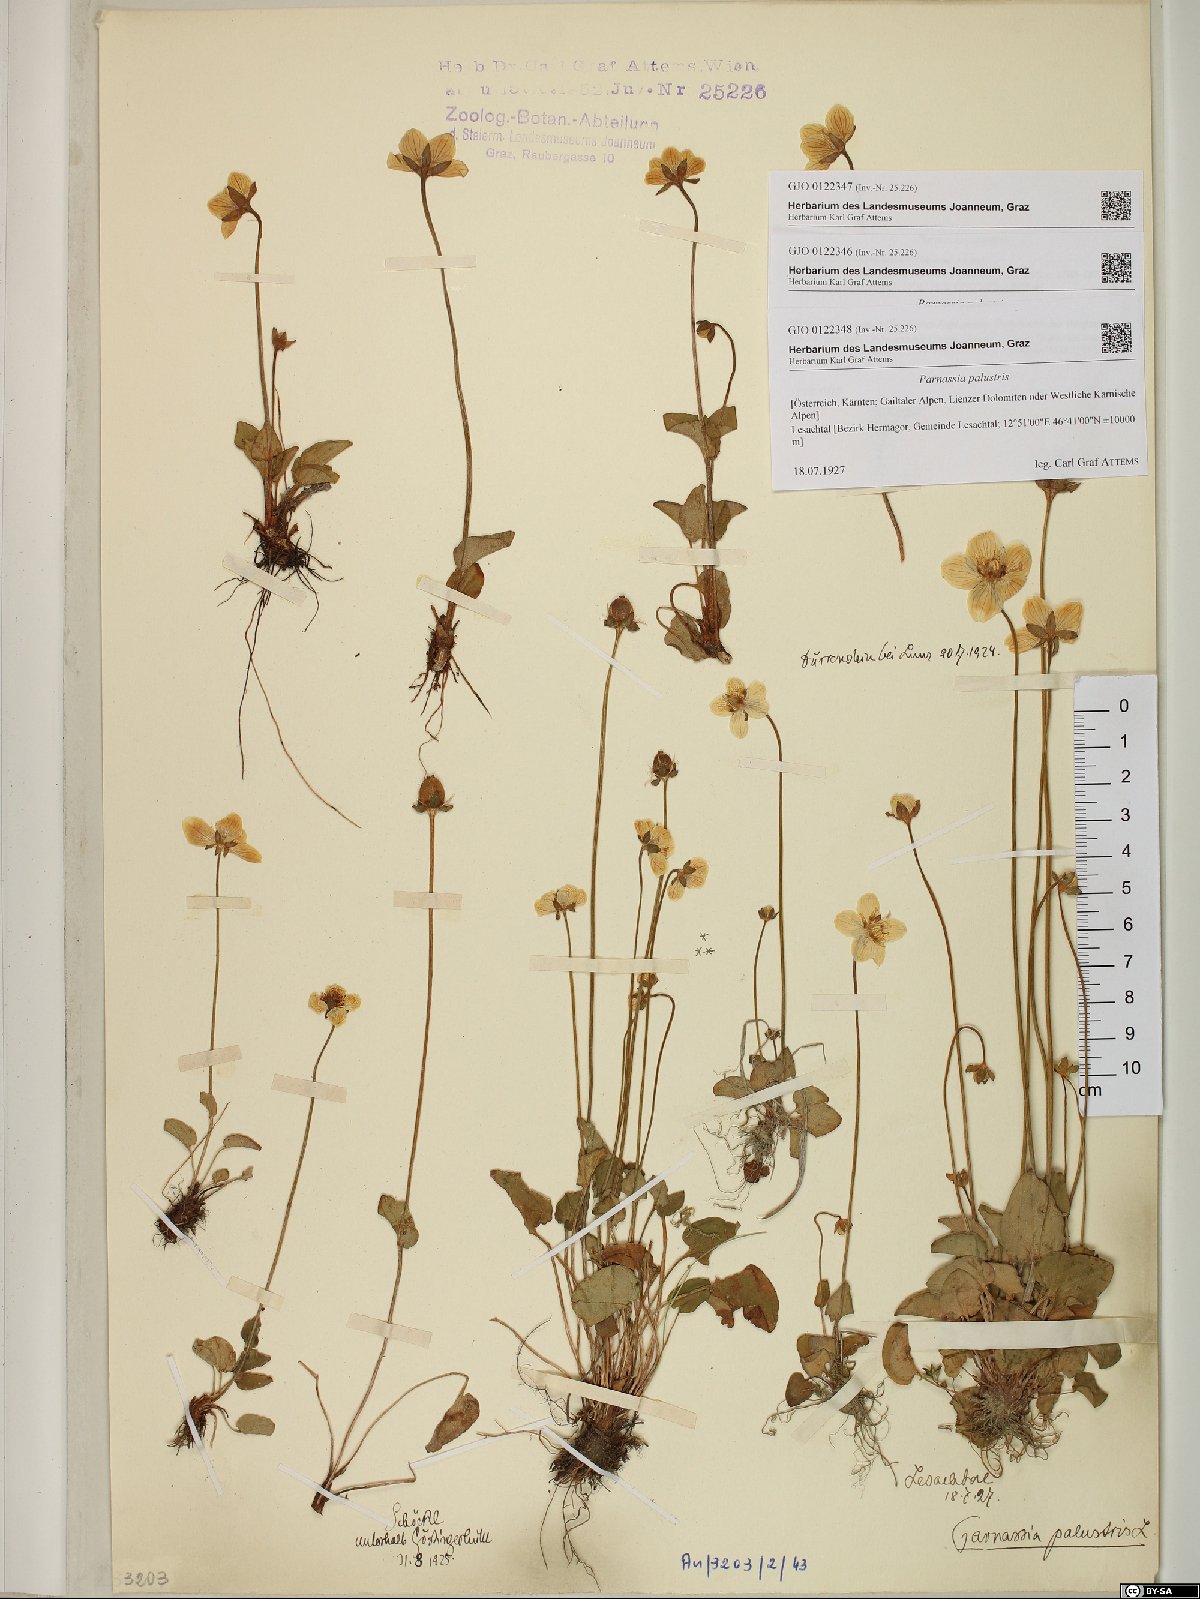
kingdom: Plantae
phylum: Tracheophyta
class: Magnoliopsida
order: Celastrales
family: Parnassiaceae
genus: Parnassia
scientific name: Parnassia palustris
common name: Grass-of-parnassus
